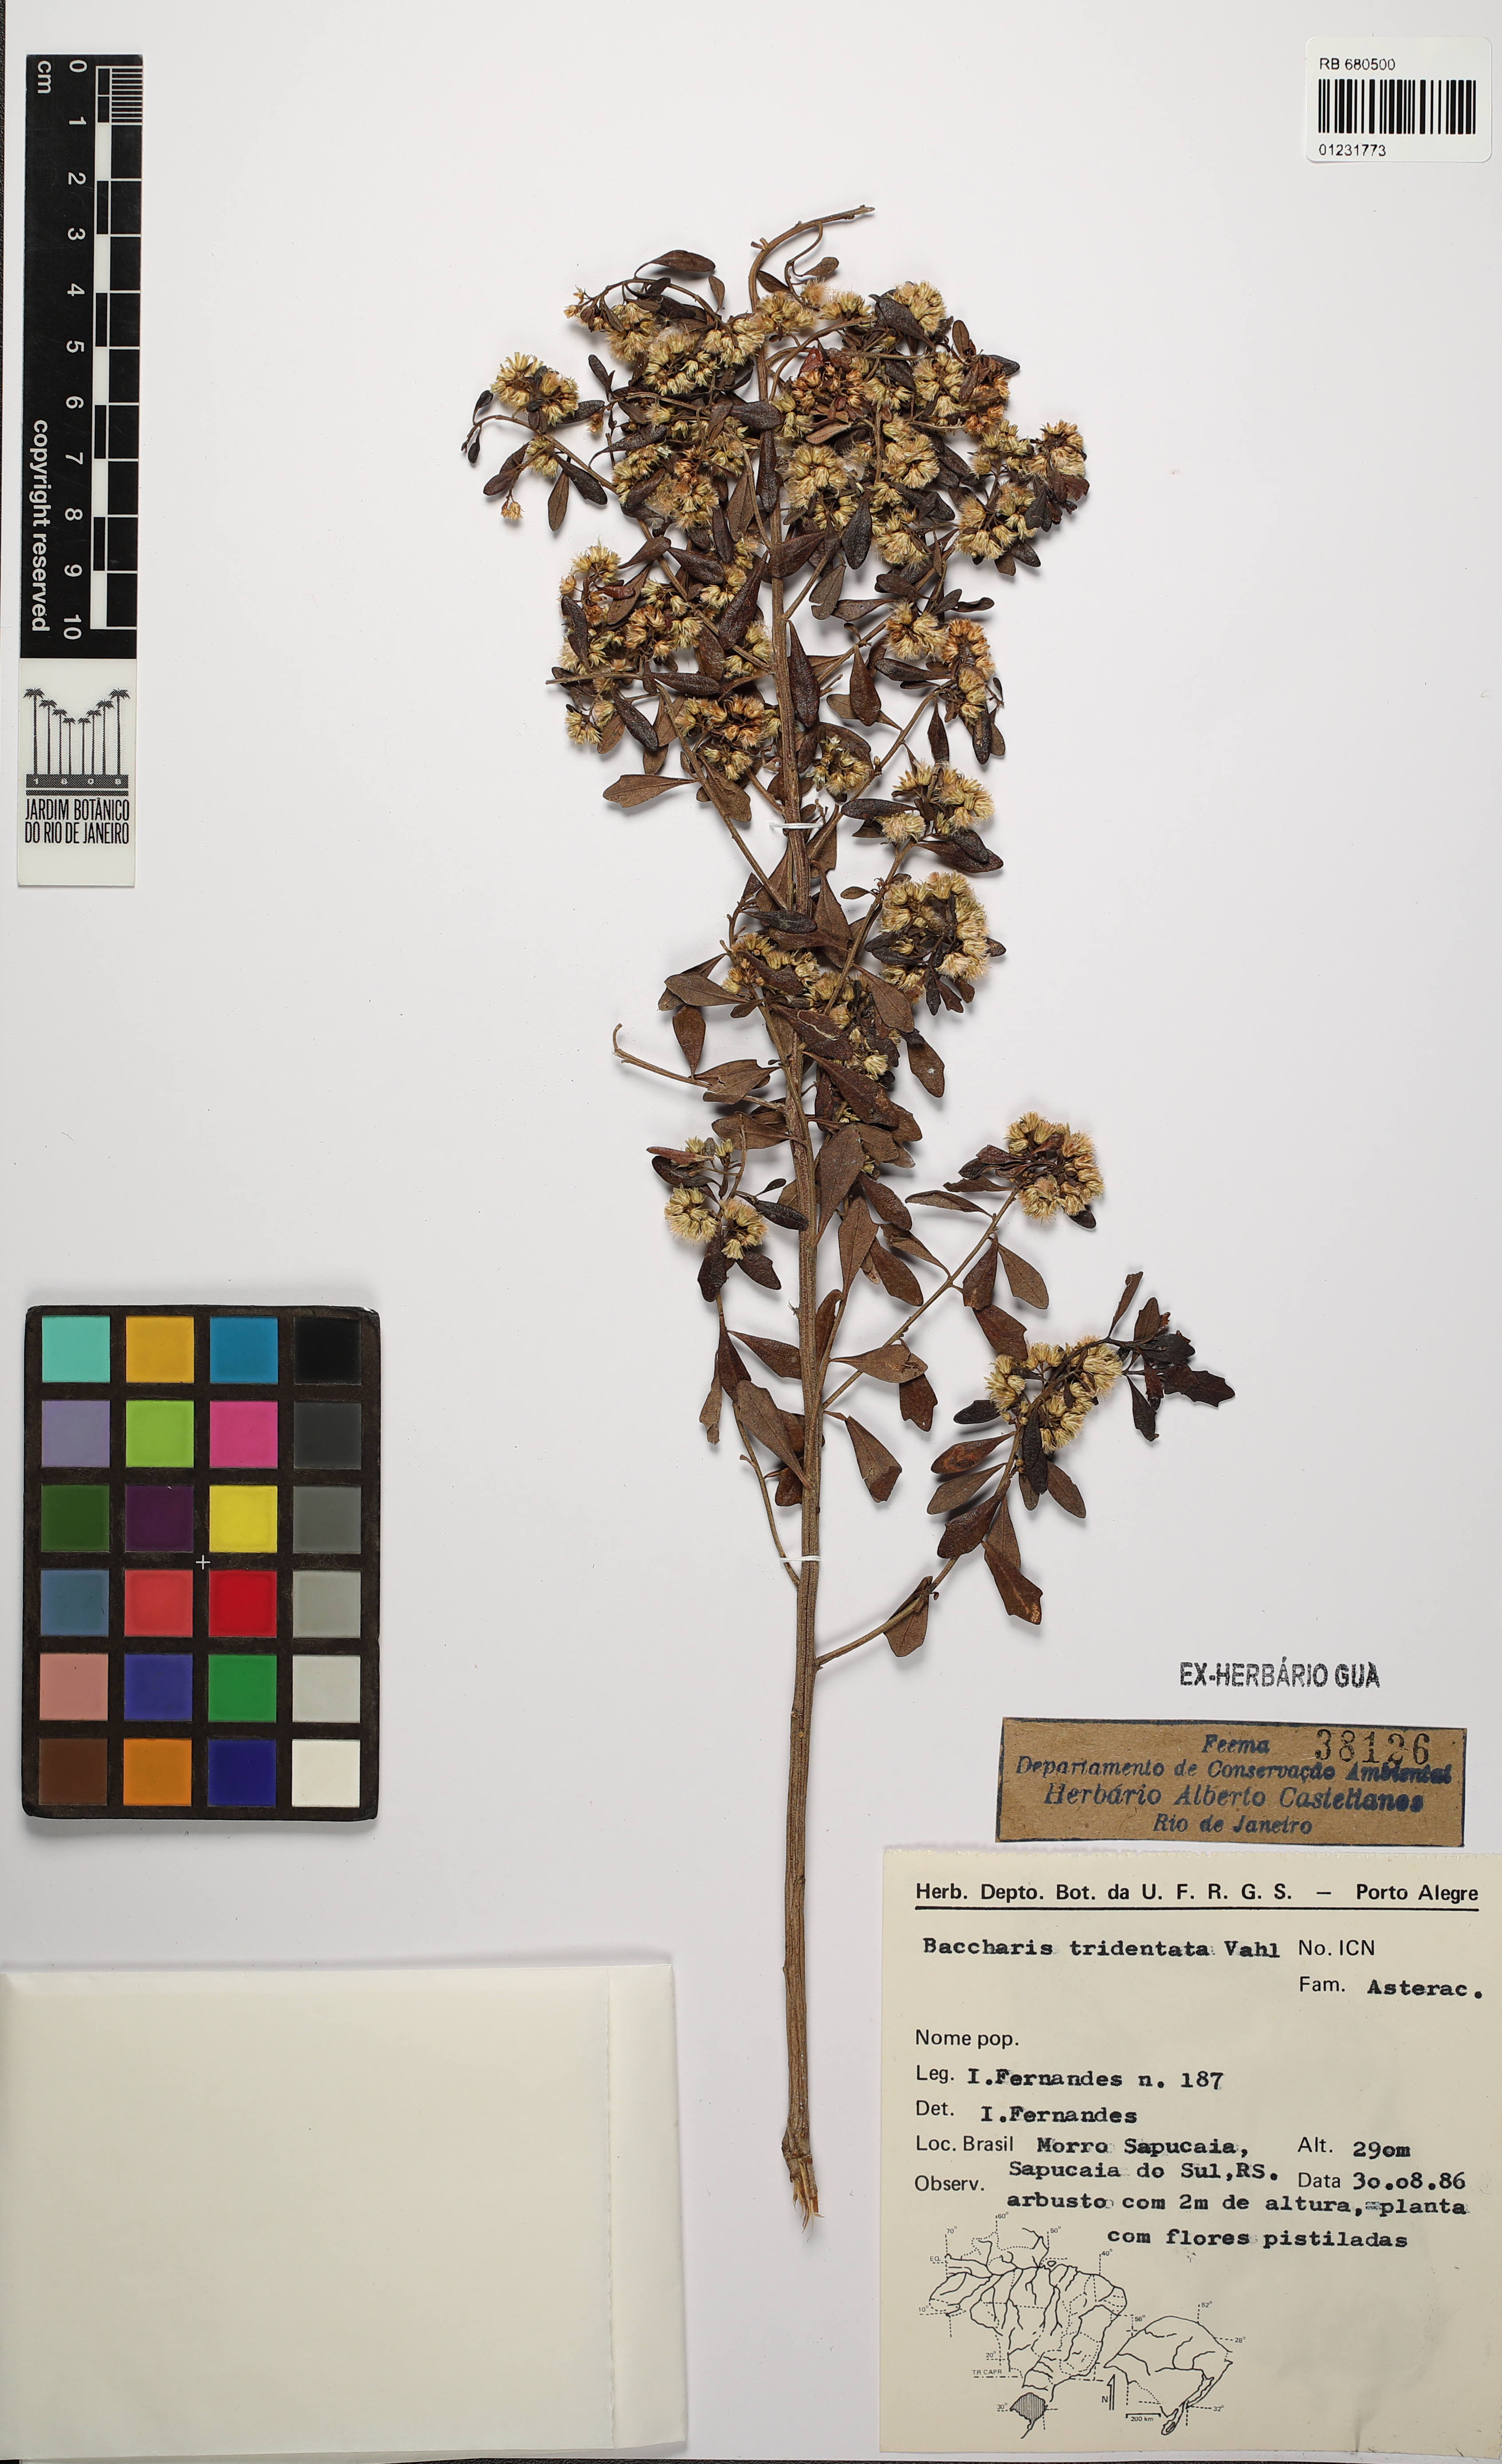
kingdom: Plantae
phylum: Tracheophyta
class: Magnoliopsida
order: Asterales
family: Asteraceae
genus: Baccharis
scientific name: Baccharis tridentata
